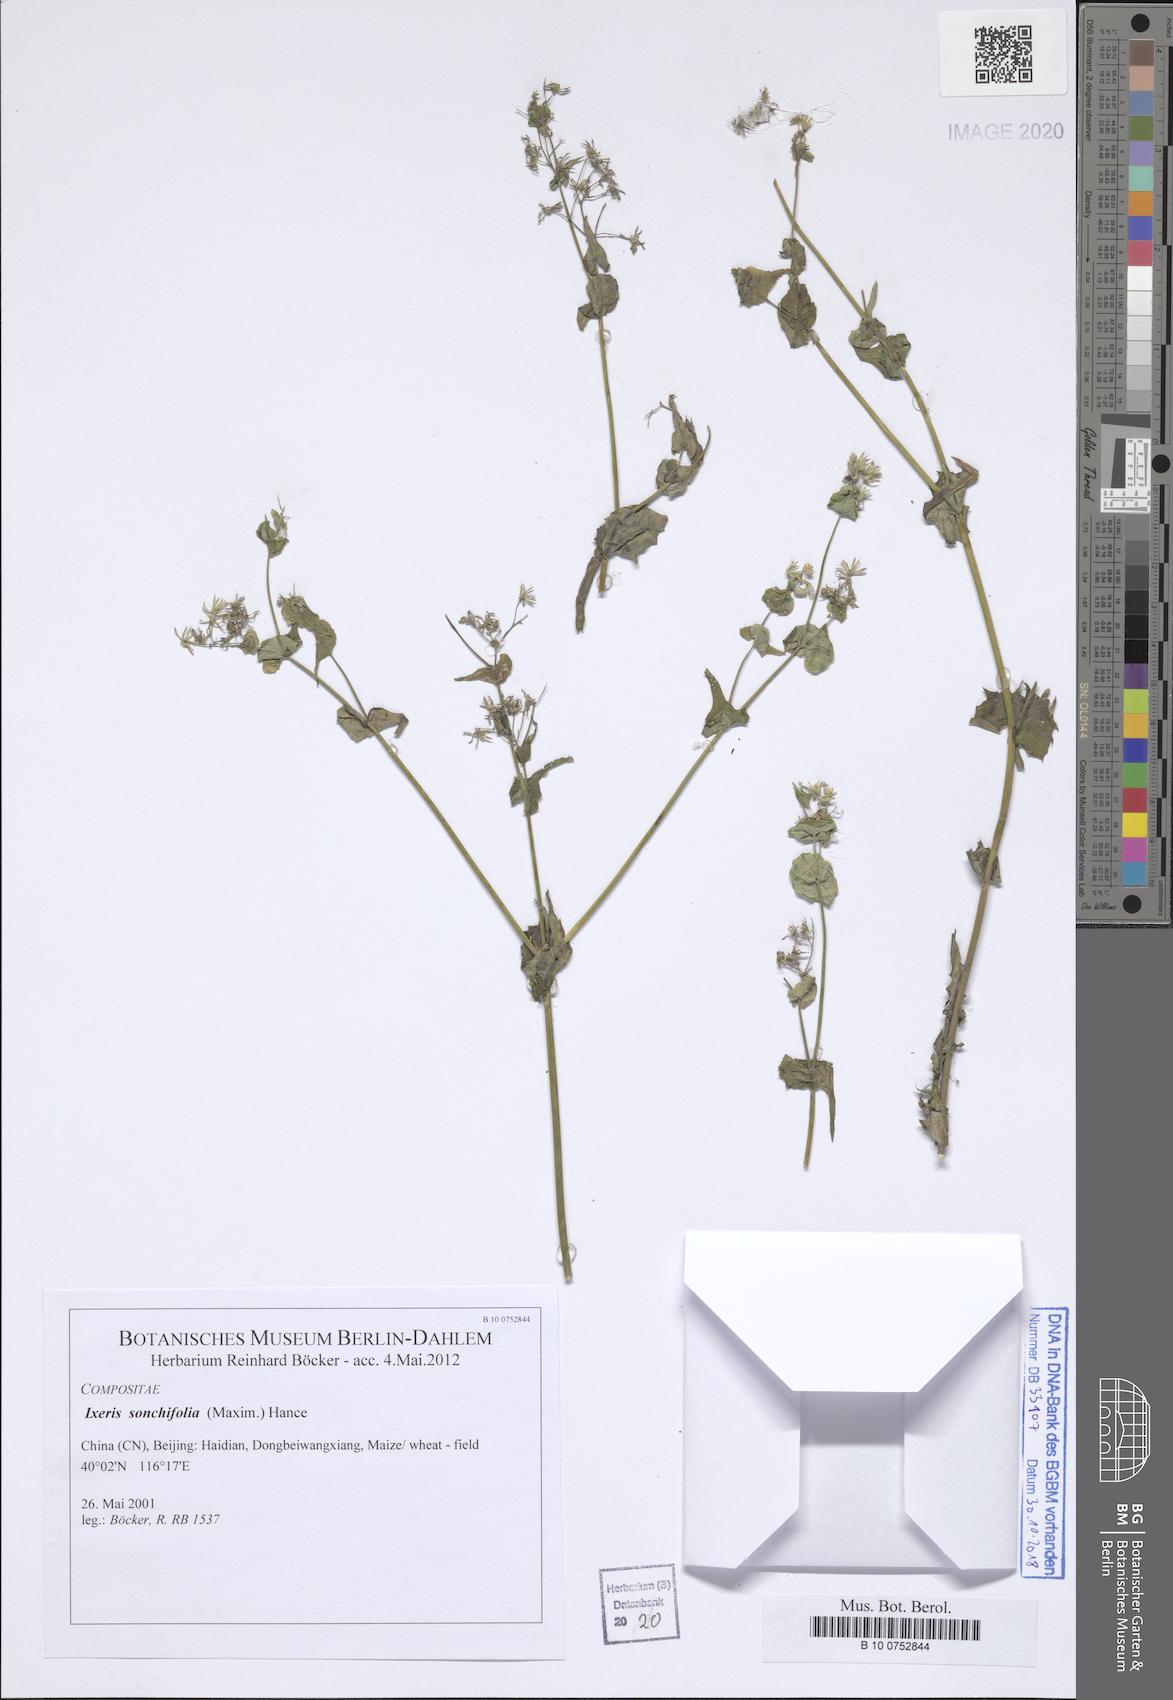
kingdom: Plantae
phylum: Tracheophyta
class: Magnoliopsida
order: Asterales
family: Asteraceae
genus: Crepidiastrum
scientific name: Crepidiastrum sonchifolium
